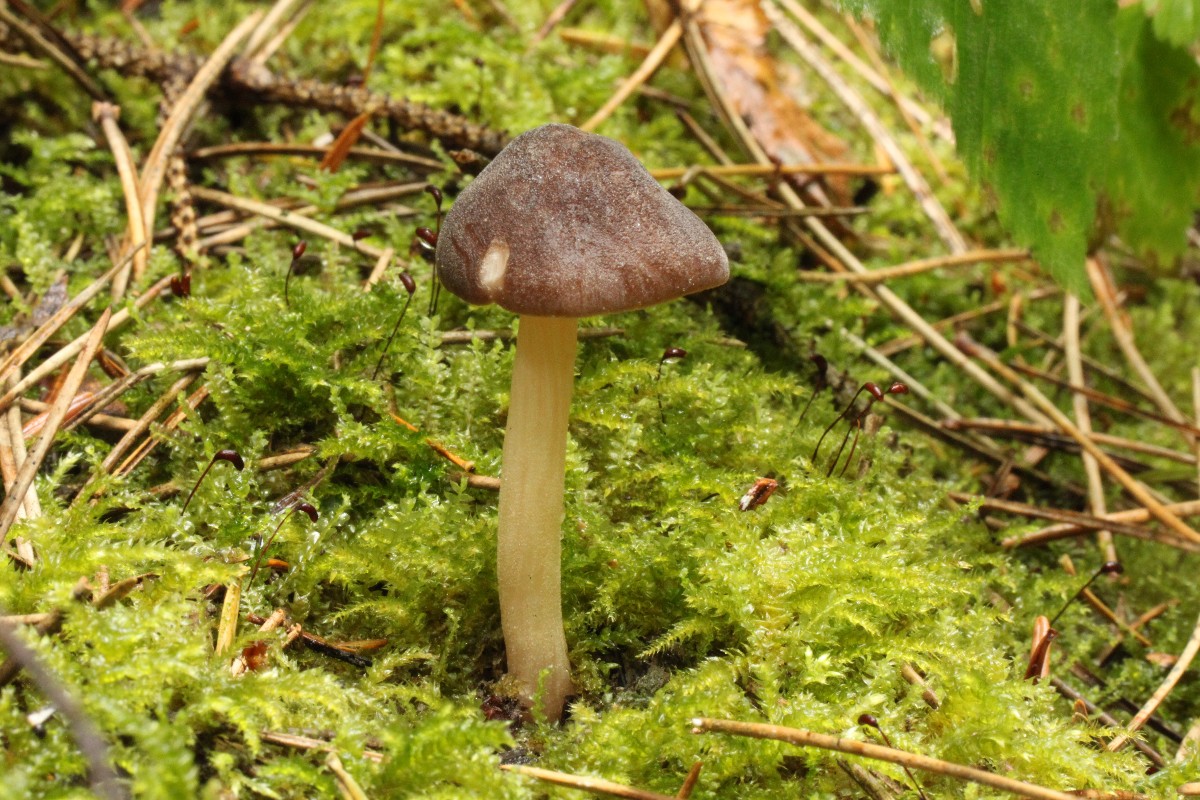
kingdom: Fungi
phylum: Basidiomycota
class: Agaricomycetes
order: Agaricales
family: Pluteaceae
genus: Pluteus
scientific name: Pluteus roseipes
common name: rosafodet skærmhat
